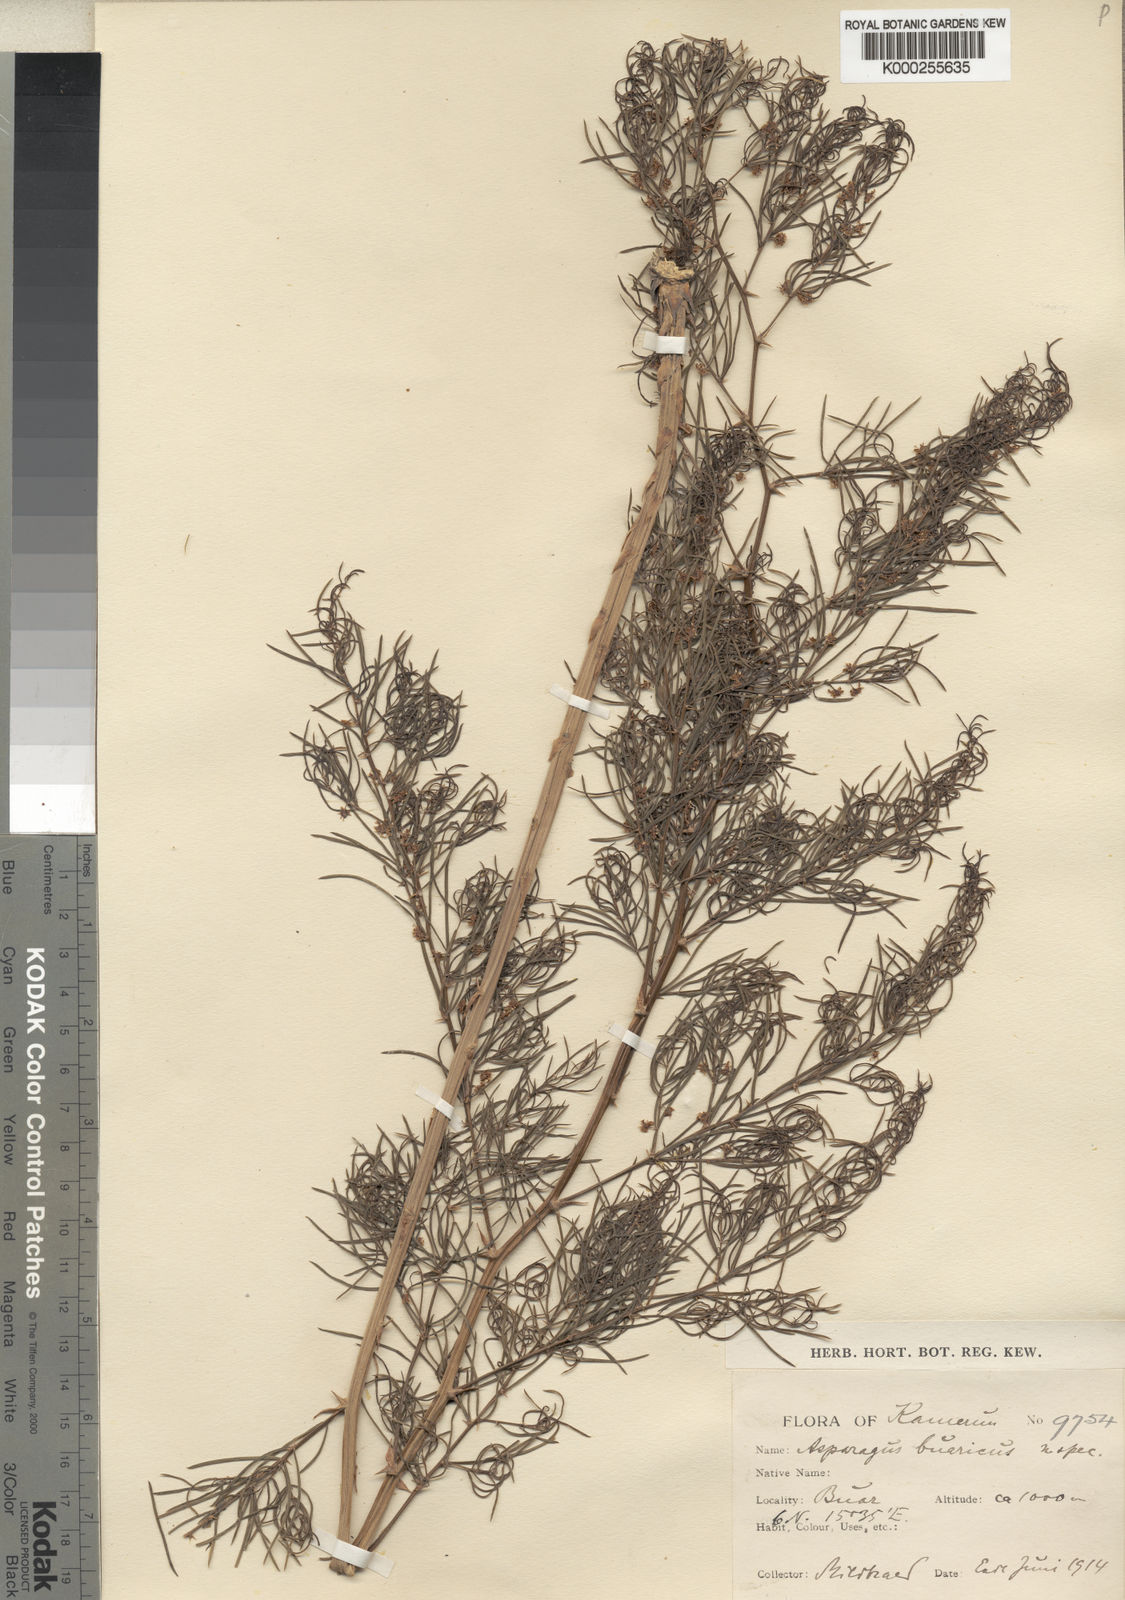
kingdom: Plantae
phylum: Tracheophyta
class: Liliopsida
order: Asparagales
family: Asparagaceae
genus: Asparagus
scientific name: Asparagus schroederi
